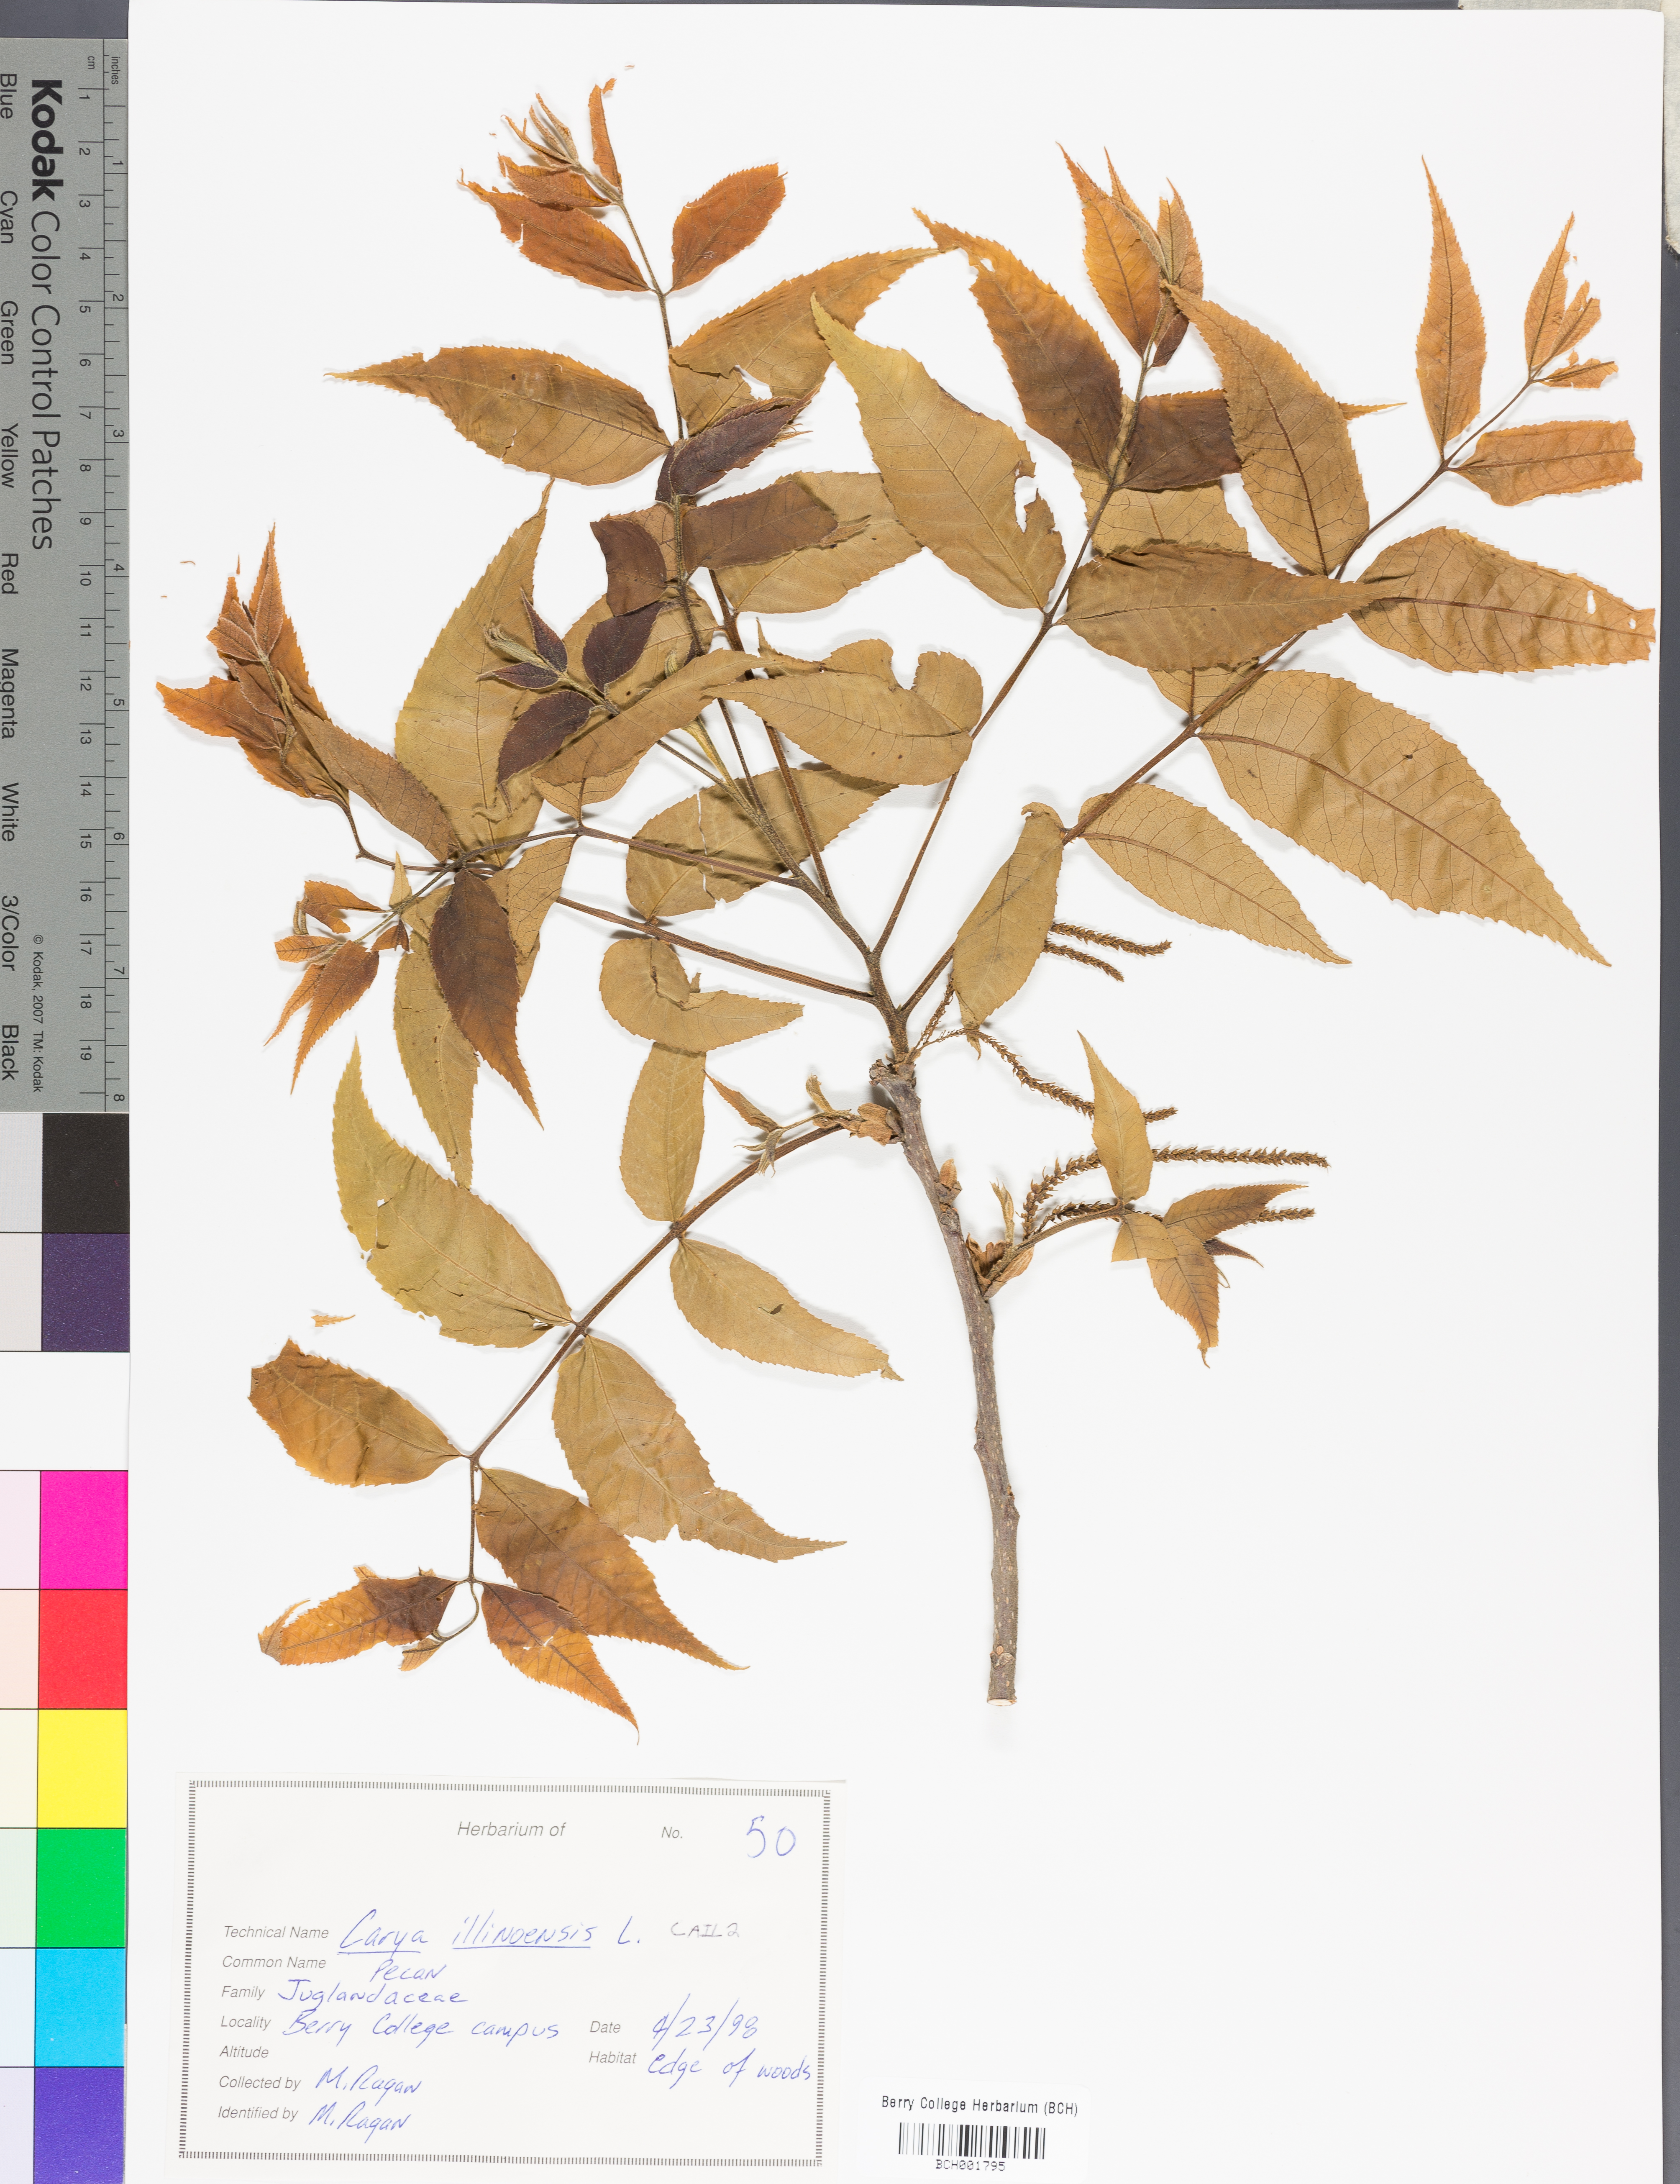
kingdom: Plantae
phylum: Tracheophyta
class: Magnoliopsida
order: Fagales
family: Juglandaceae
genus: Carya
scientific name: Carya illinoinensis
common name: Pecan
